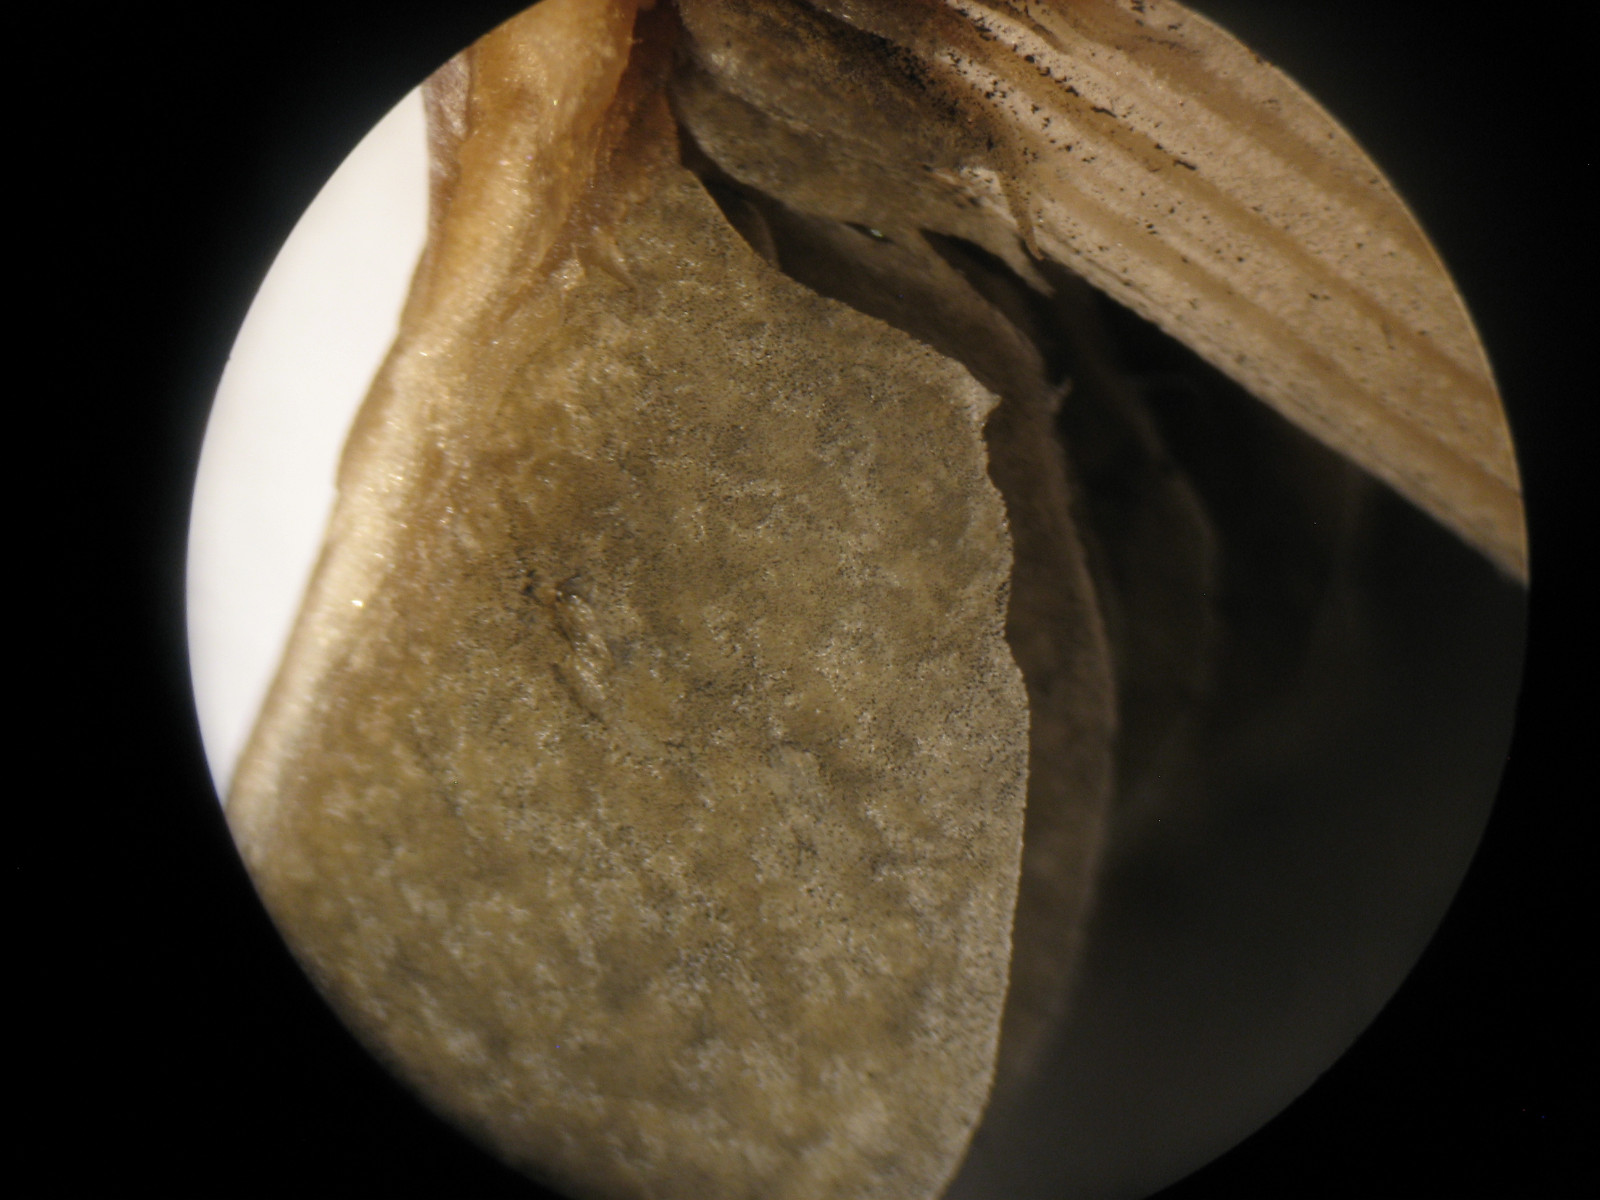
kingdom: Fungi
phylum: Basidiomycota
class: Agaricomycetes
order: Agaricales
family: Bolbitiaceae
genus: Panaeolus
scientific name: Panaeolus acuminatus
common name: høj glanshat
